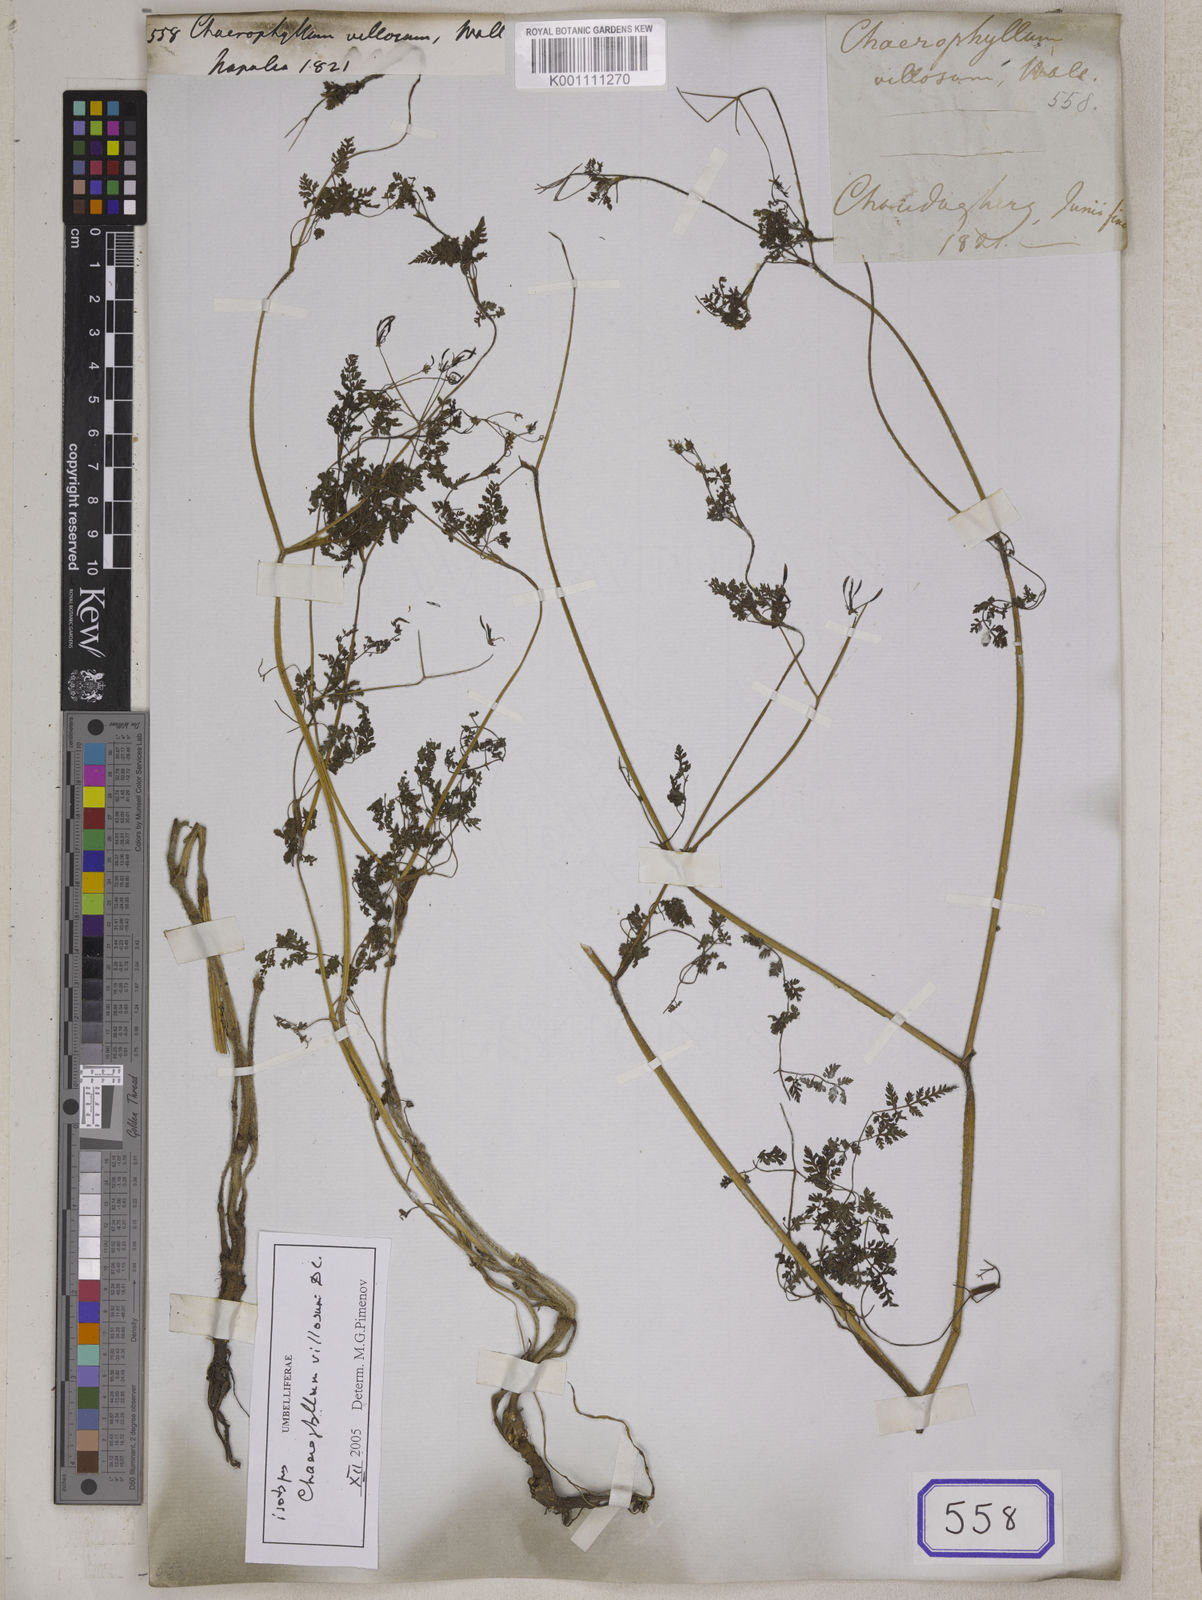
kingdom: Plantae
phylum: Tracheophyta
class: Magnoliopsida
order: Apiales
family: Apiaceae
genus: Chaerophyllum
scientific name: Chaerophyllum
